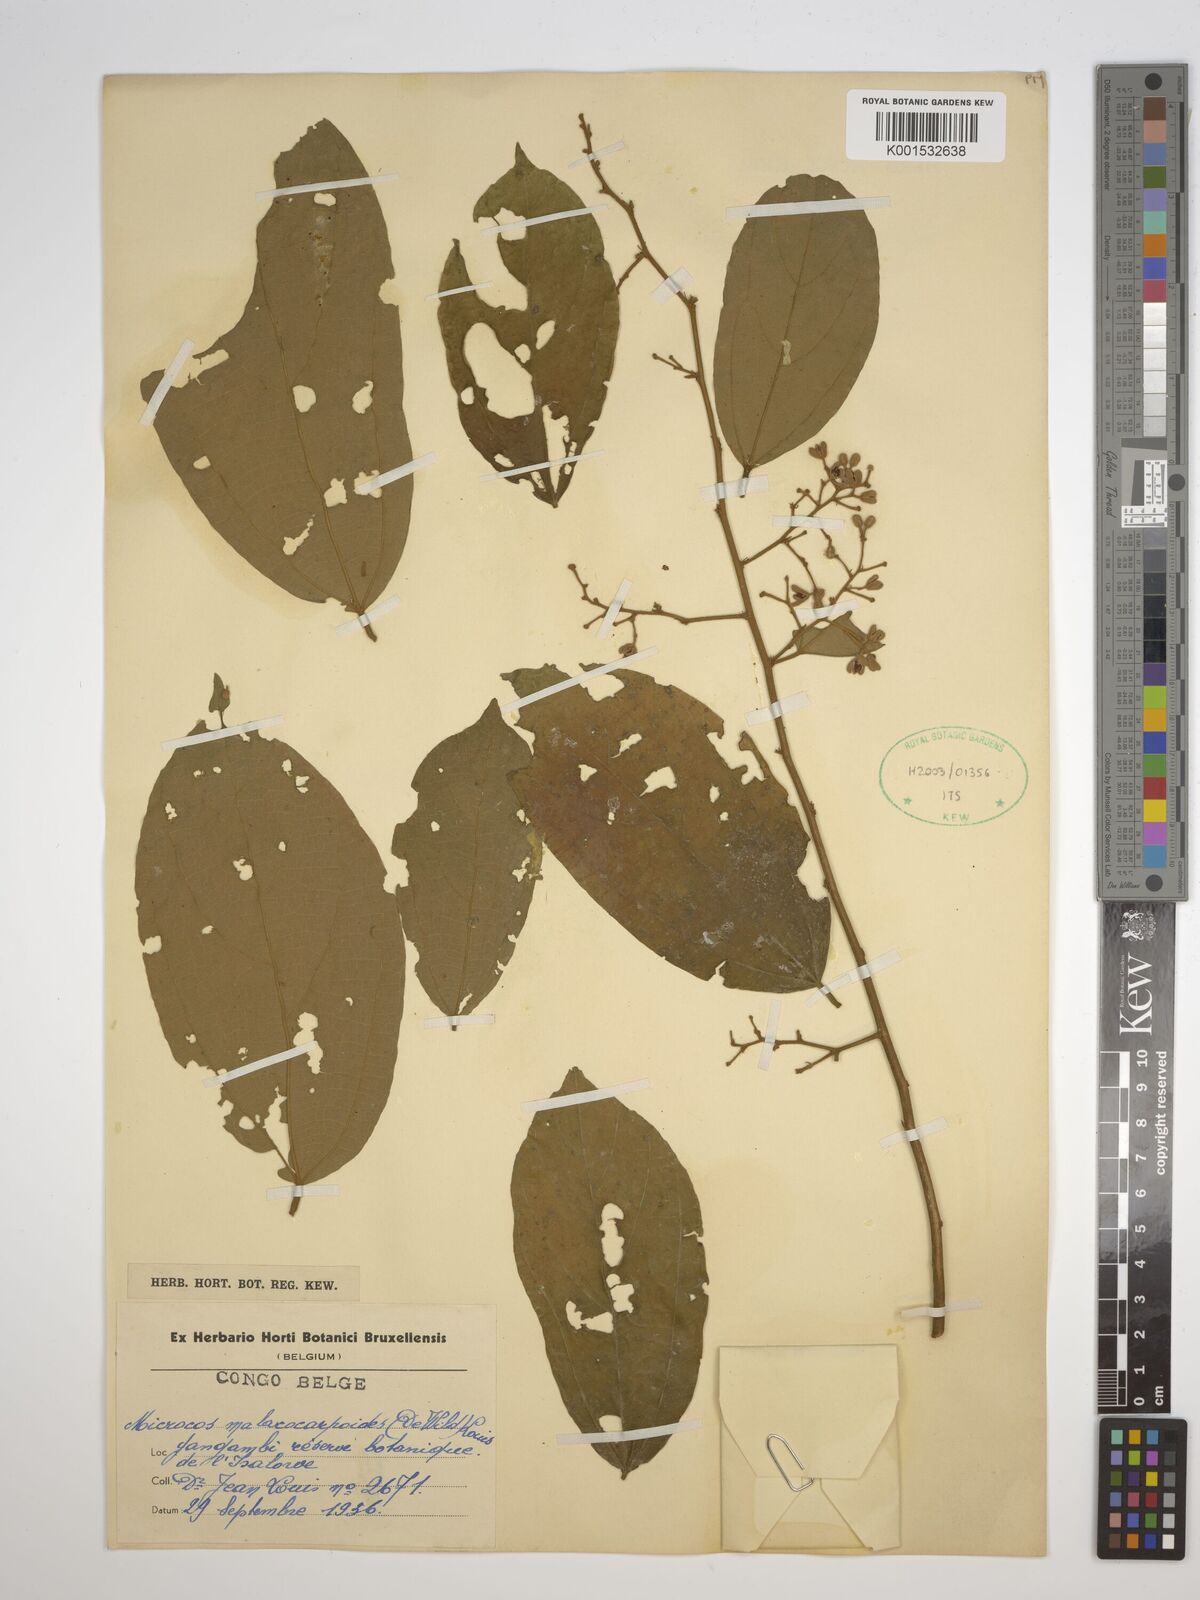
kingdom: Plantae
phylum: Tracheophyta
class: Magnoliopsida
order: Malvales
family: Malvaceae
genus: Microcos
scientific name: Microcos
